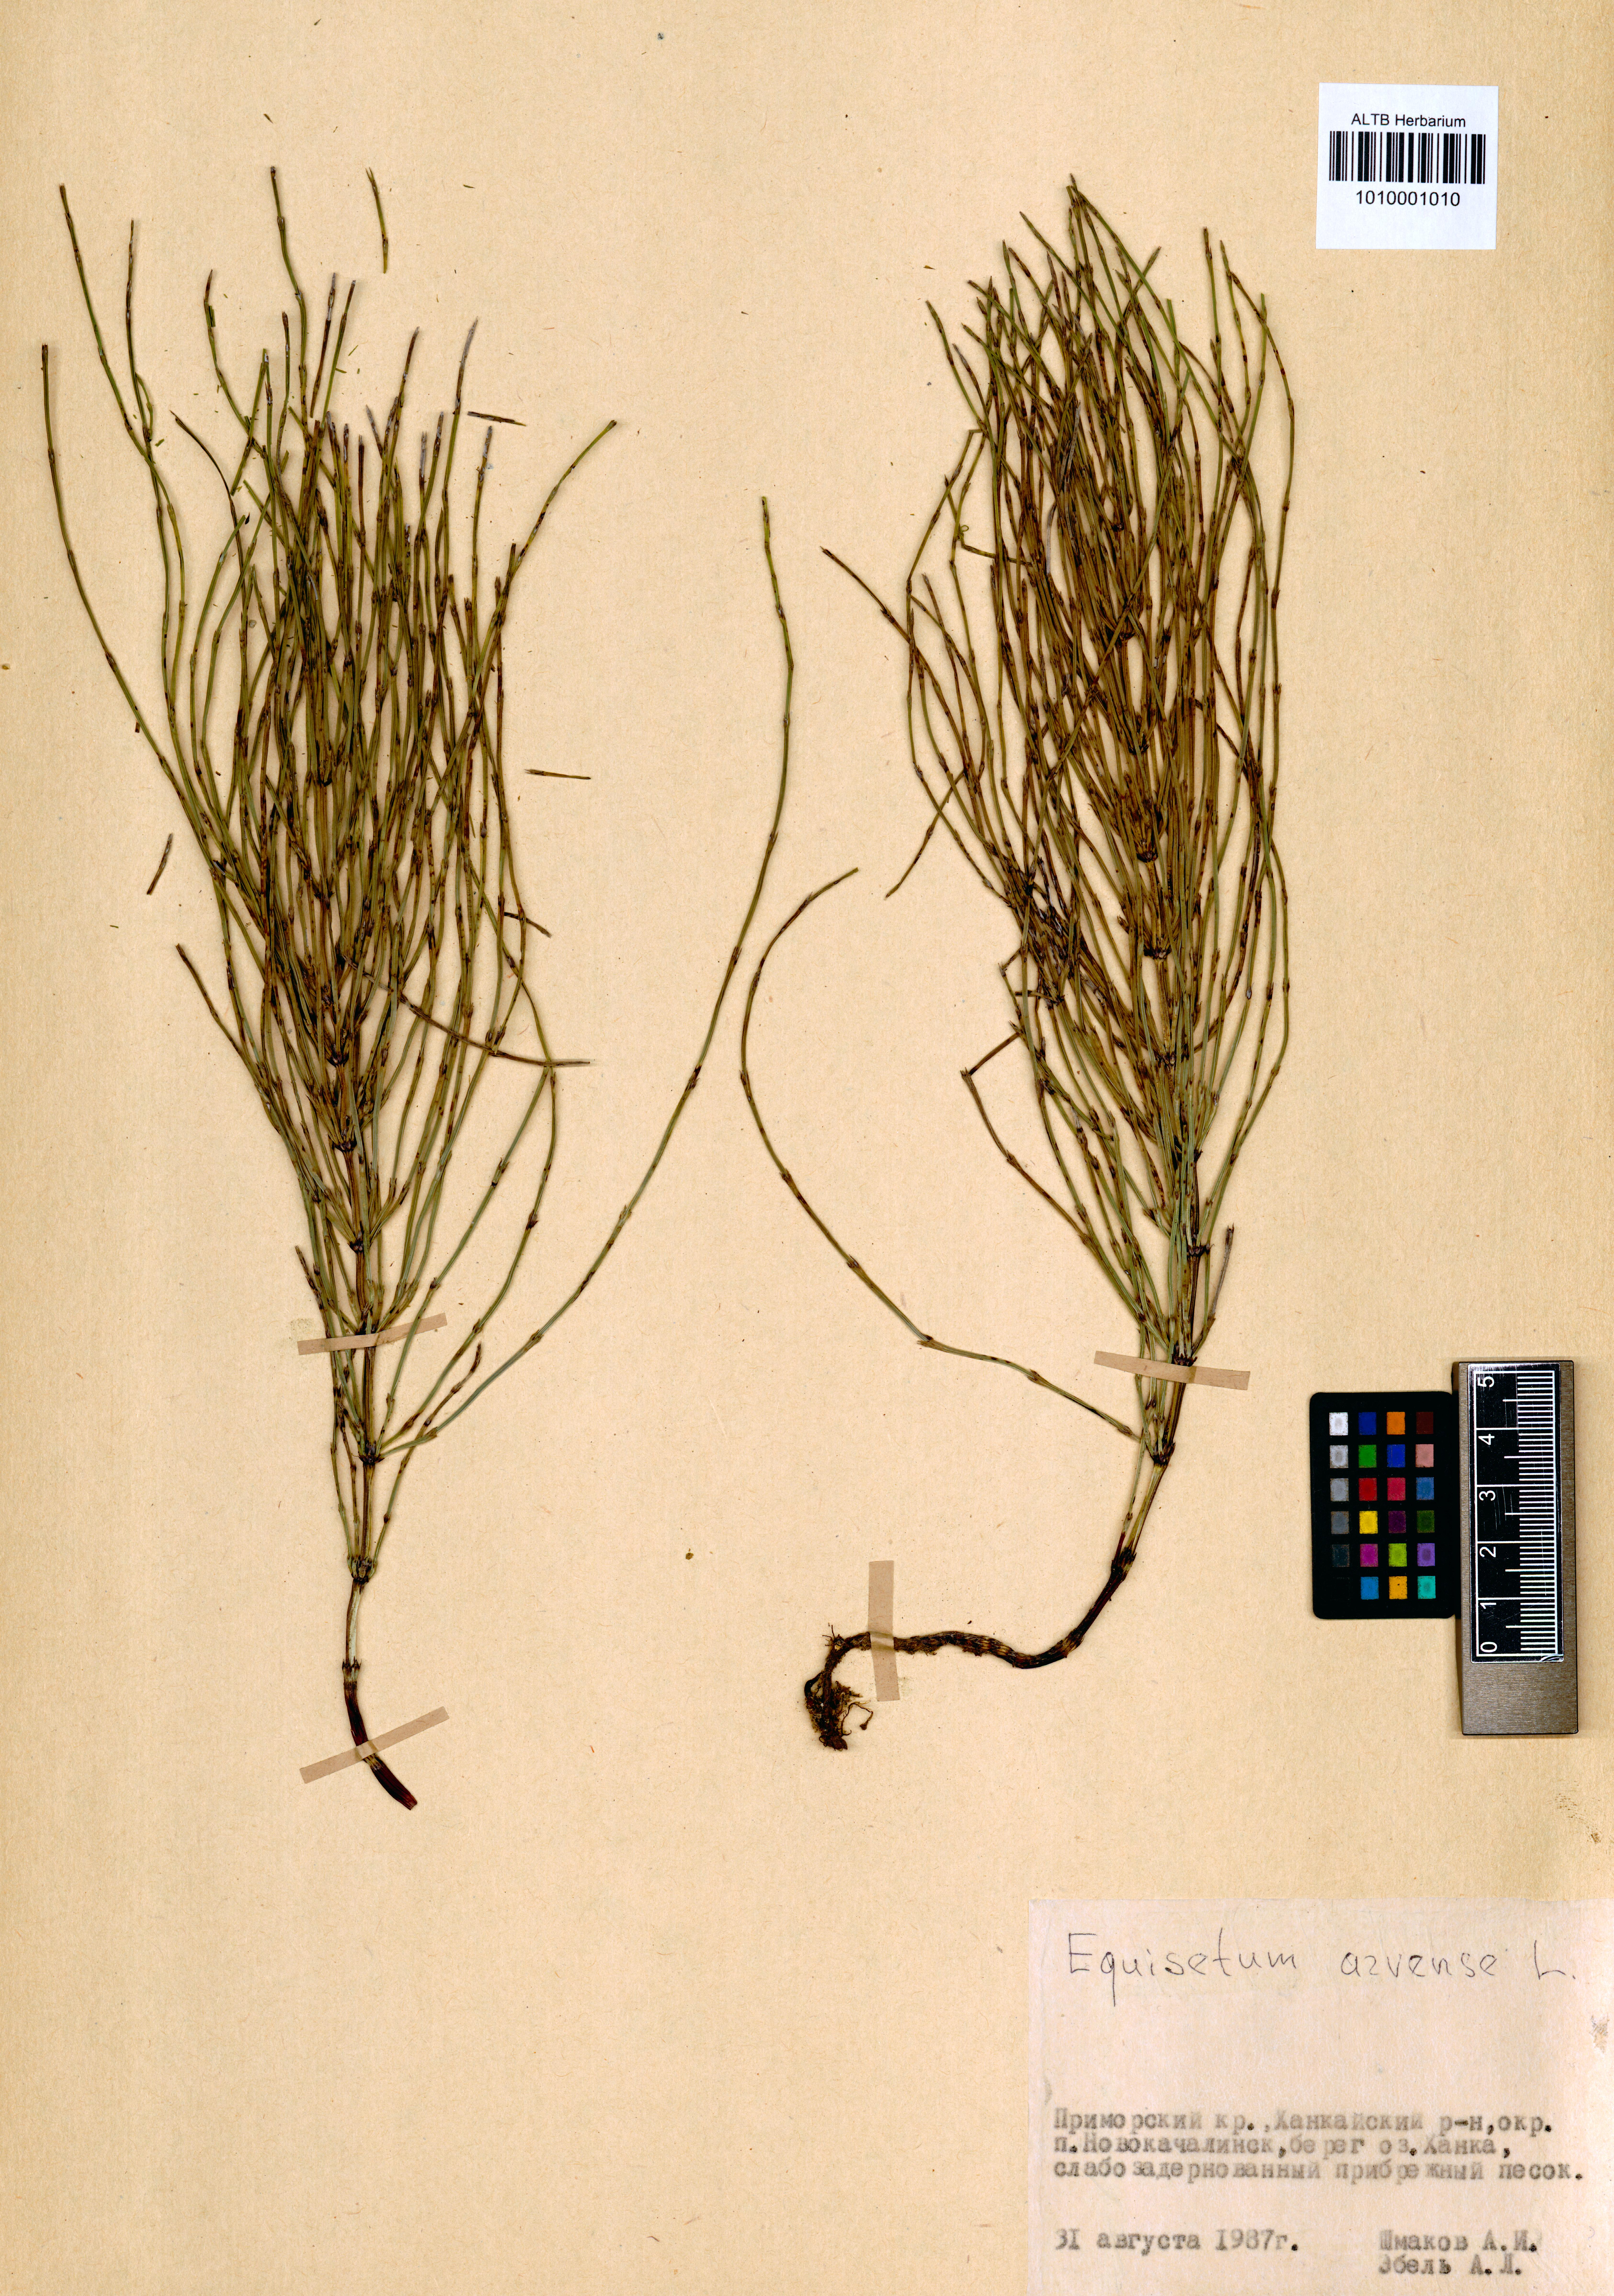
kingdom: Plantae
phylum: Tracheophyta
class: Polypodiopsida
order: Equisetales
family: Equisetaceae
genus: Equisetum
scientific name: Equisetum arvense
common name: Field horsetail
